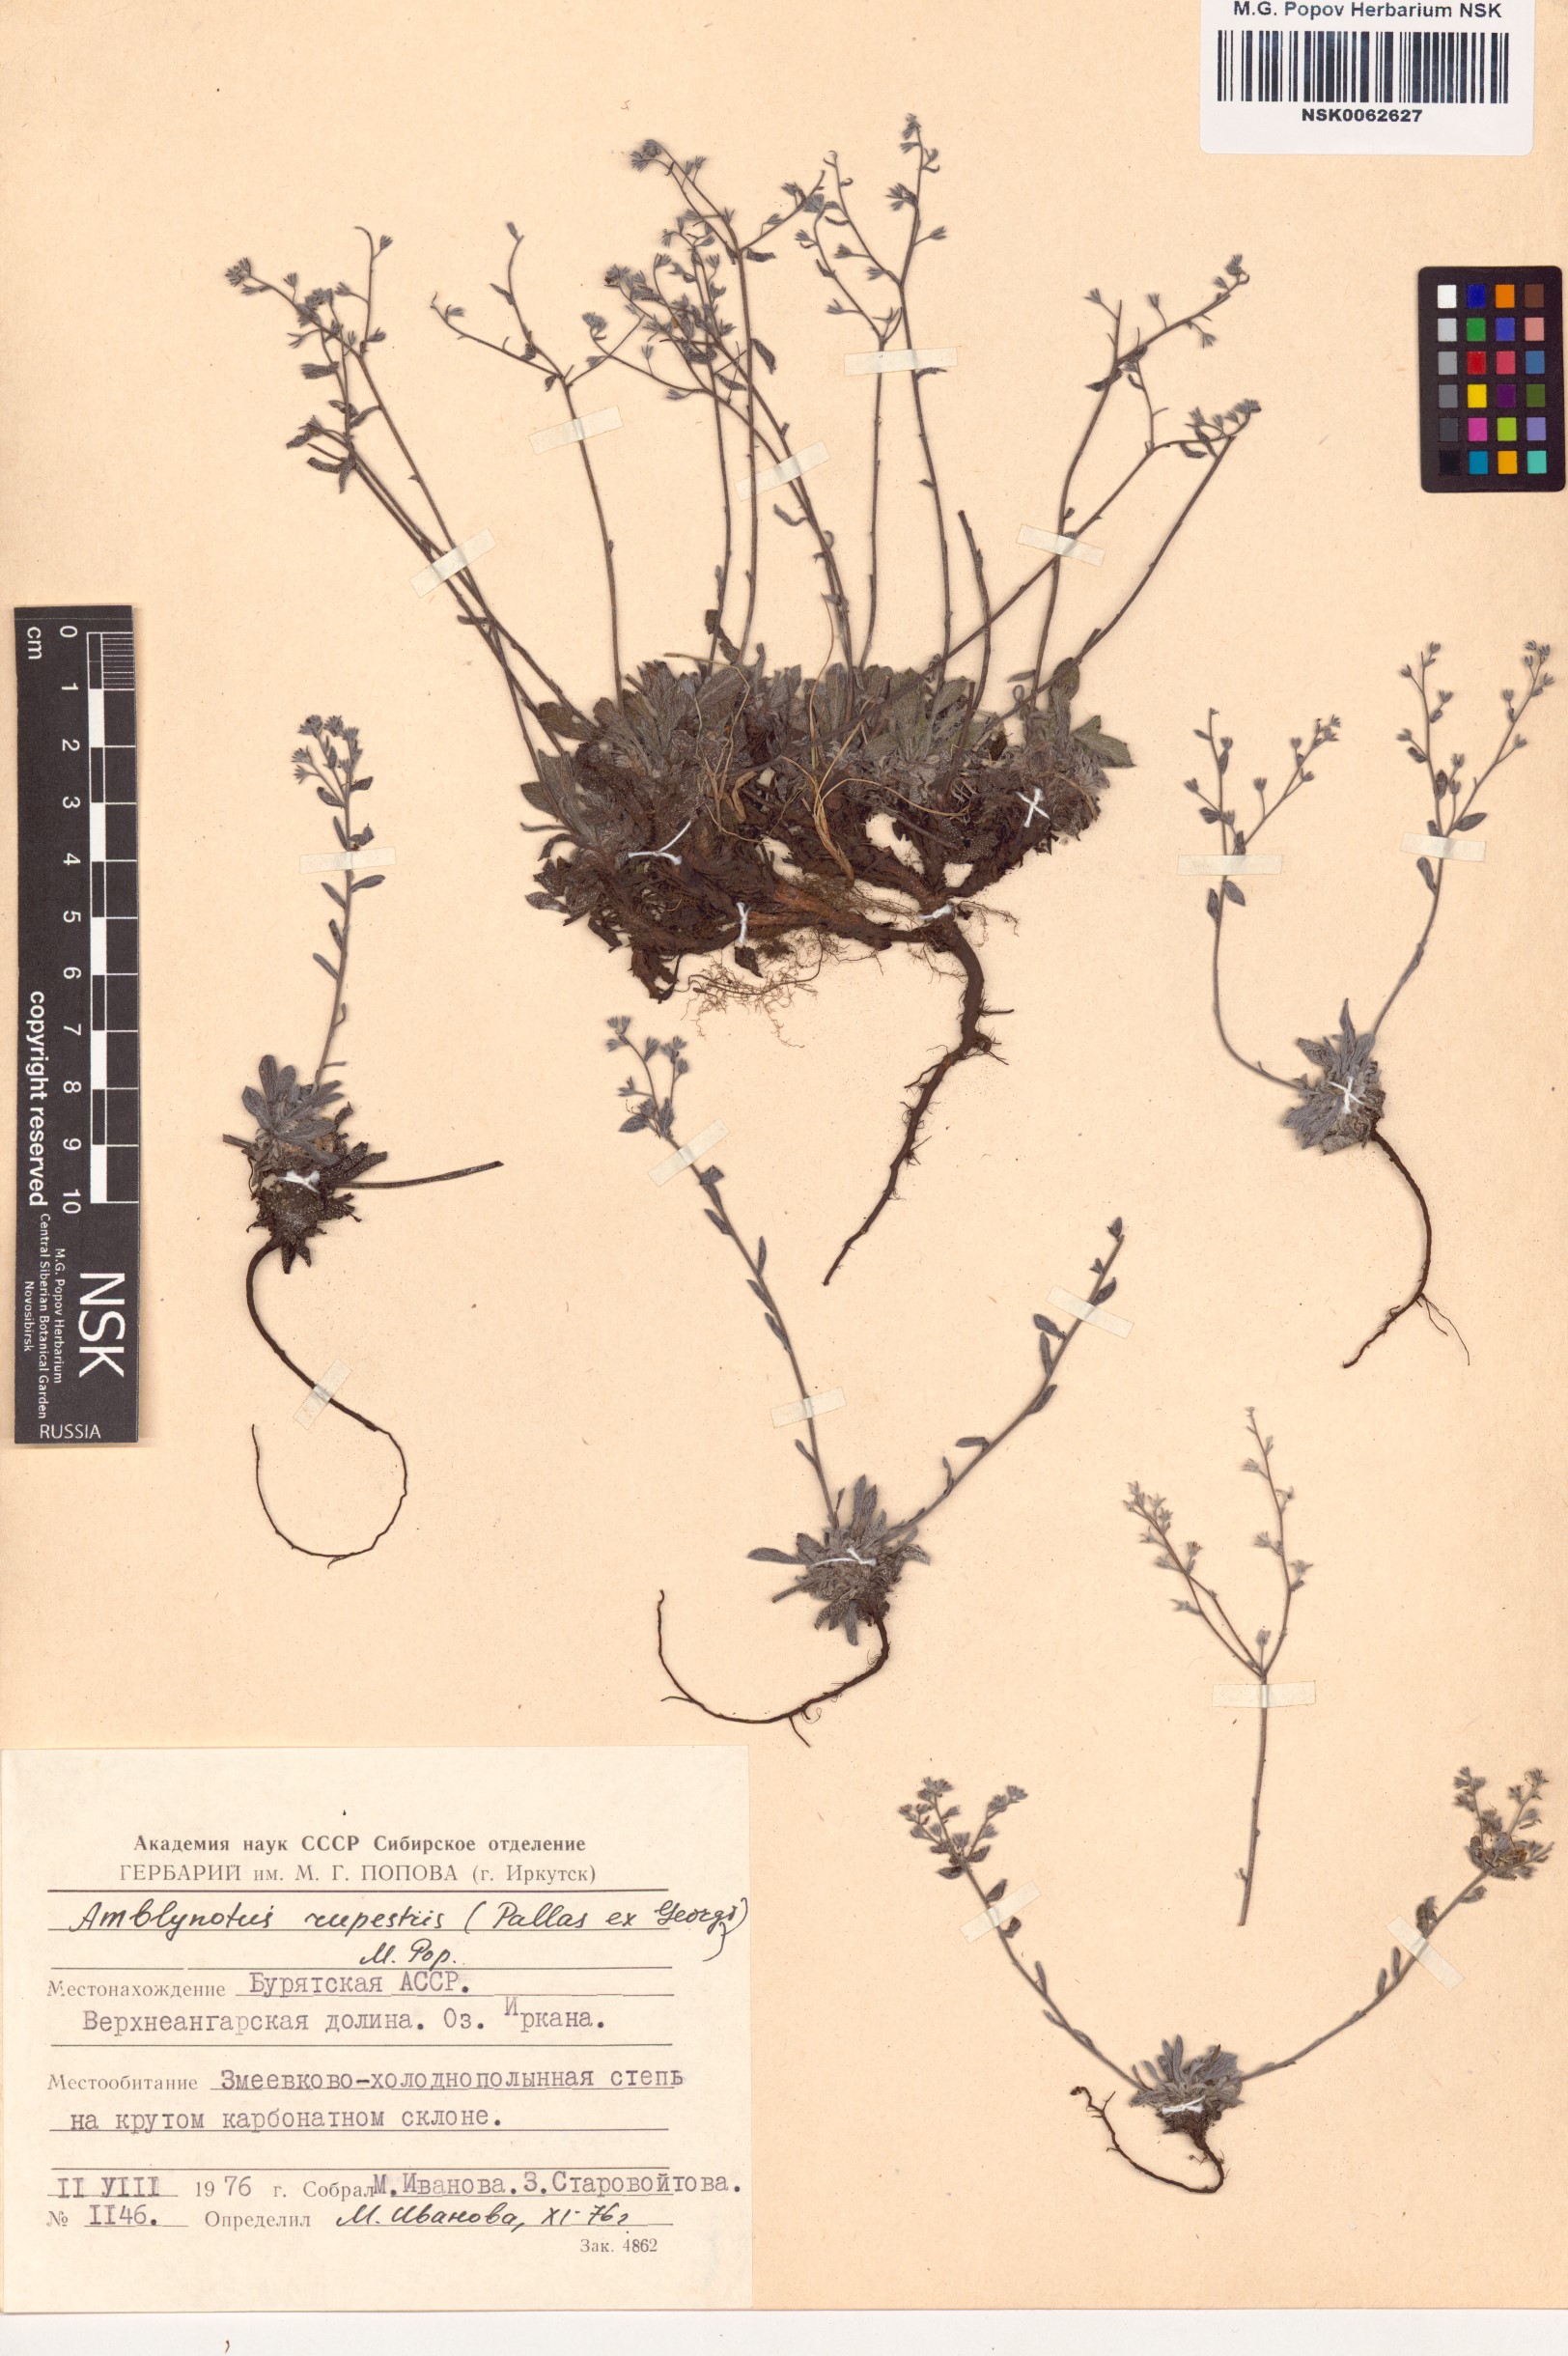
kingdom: Plantae
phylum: Tracheophyta
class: Magnoliopsida
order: Boraginales
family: Boraginaceae
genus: Eritrichium
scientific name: Eritrichium rupestre
